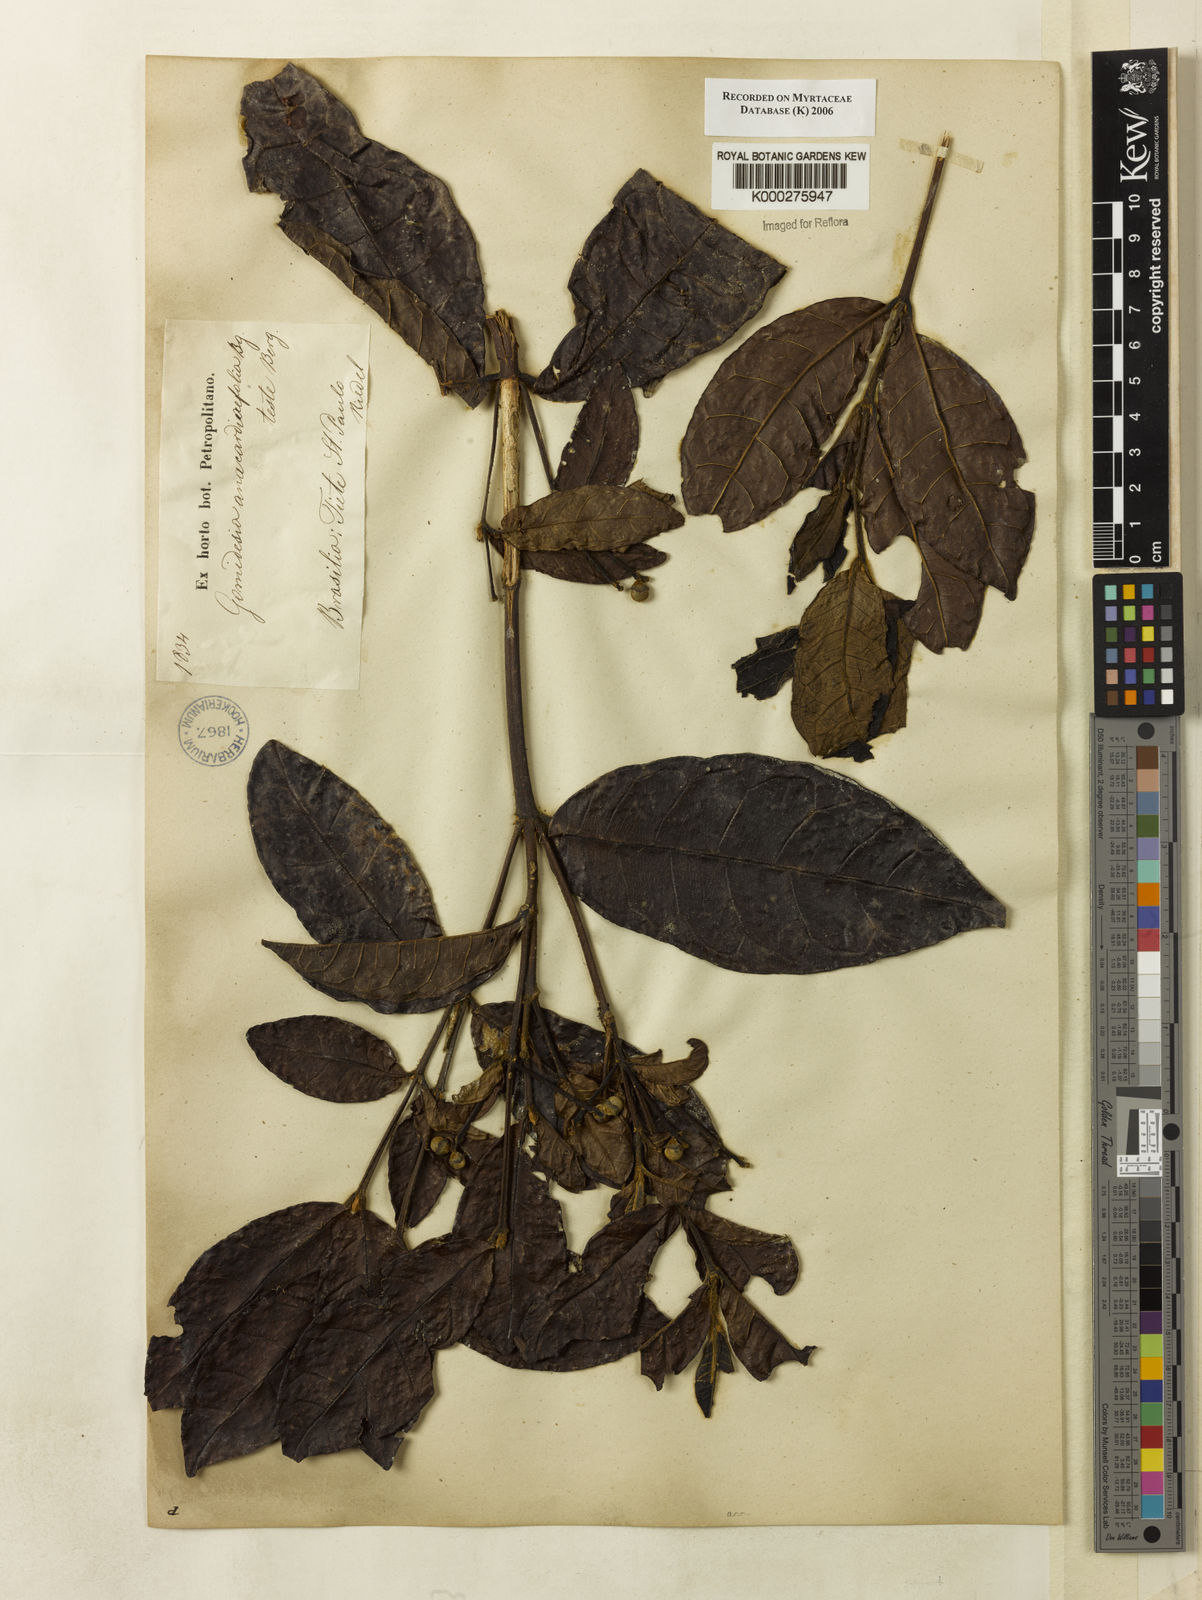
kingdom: Plantae
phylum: Tracheophyta
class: Magnoliopsida
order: Myrtales
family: Myrtaceae
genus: Myrcia
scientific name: Myrcia anacardiifolia
